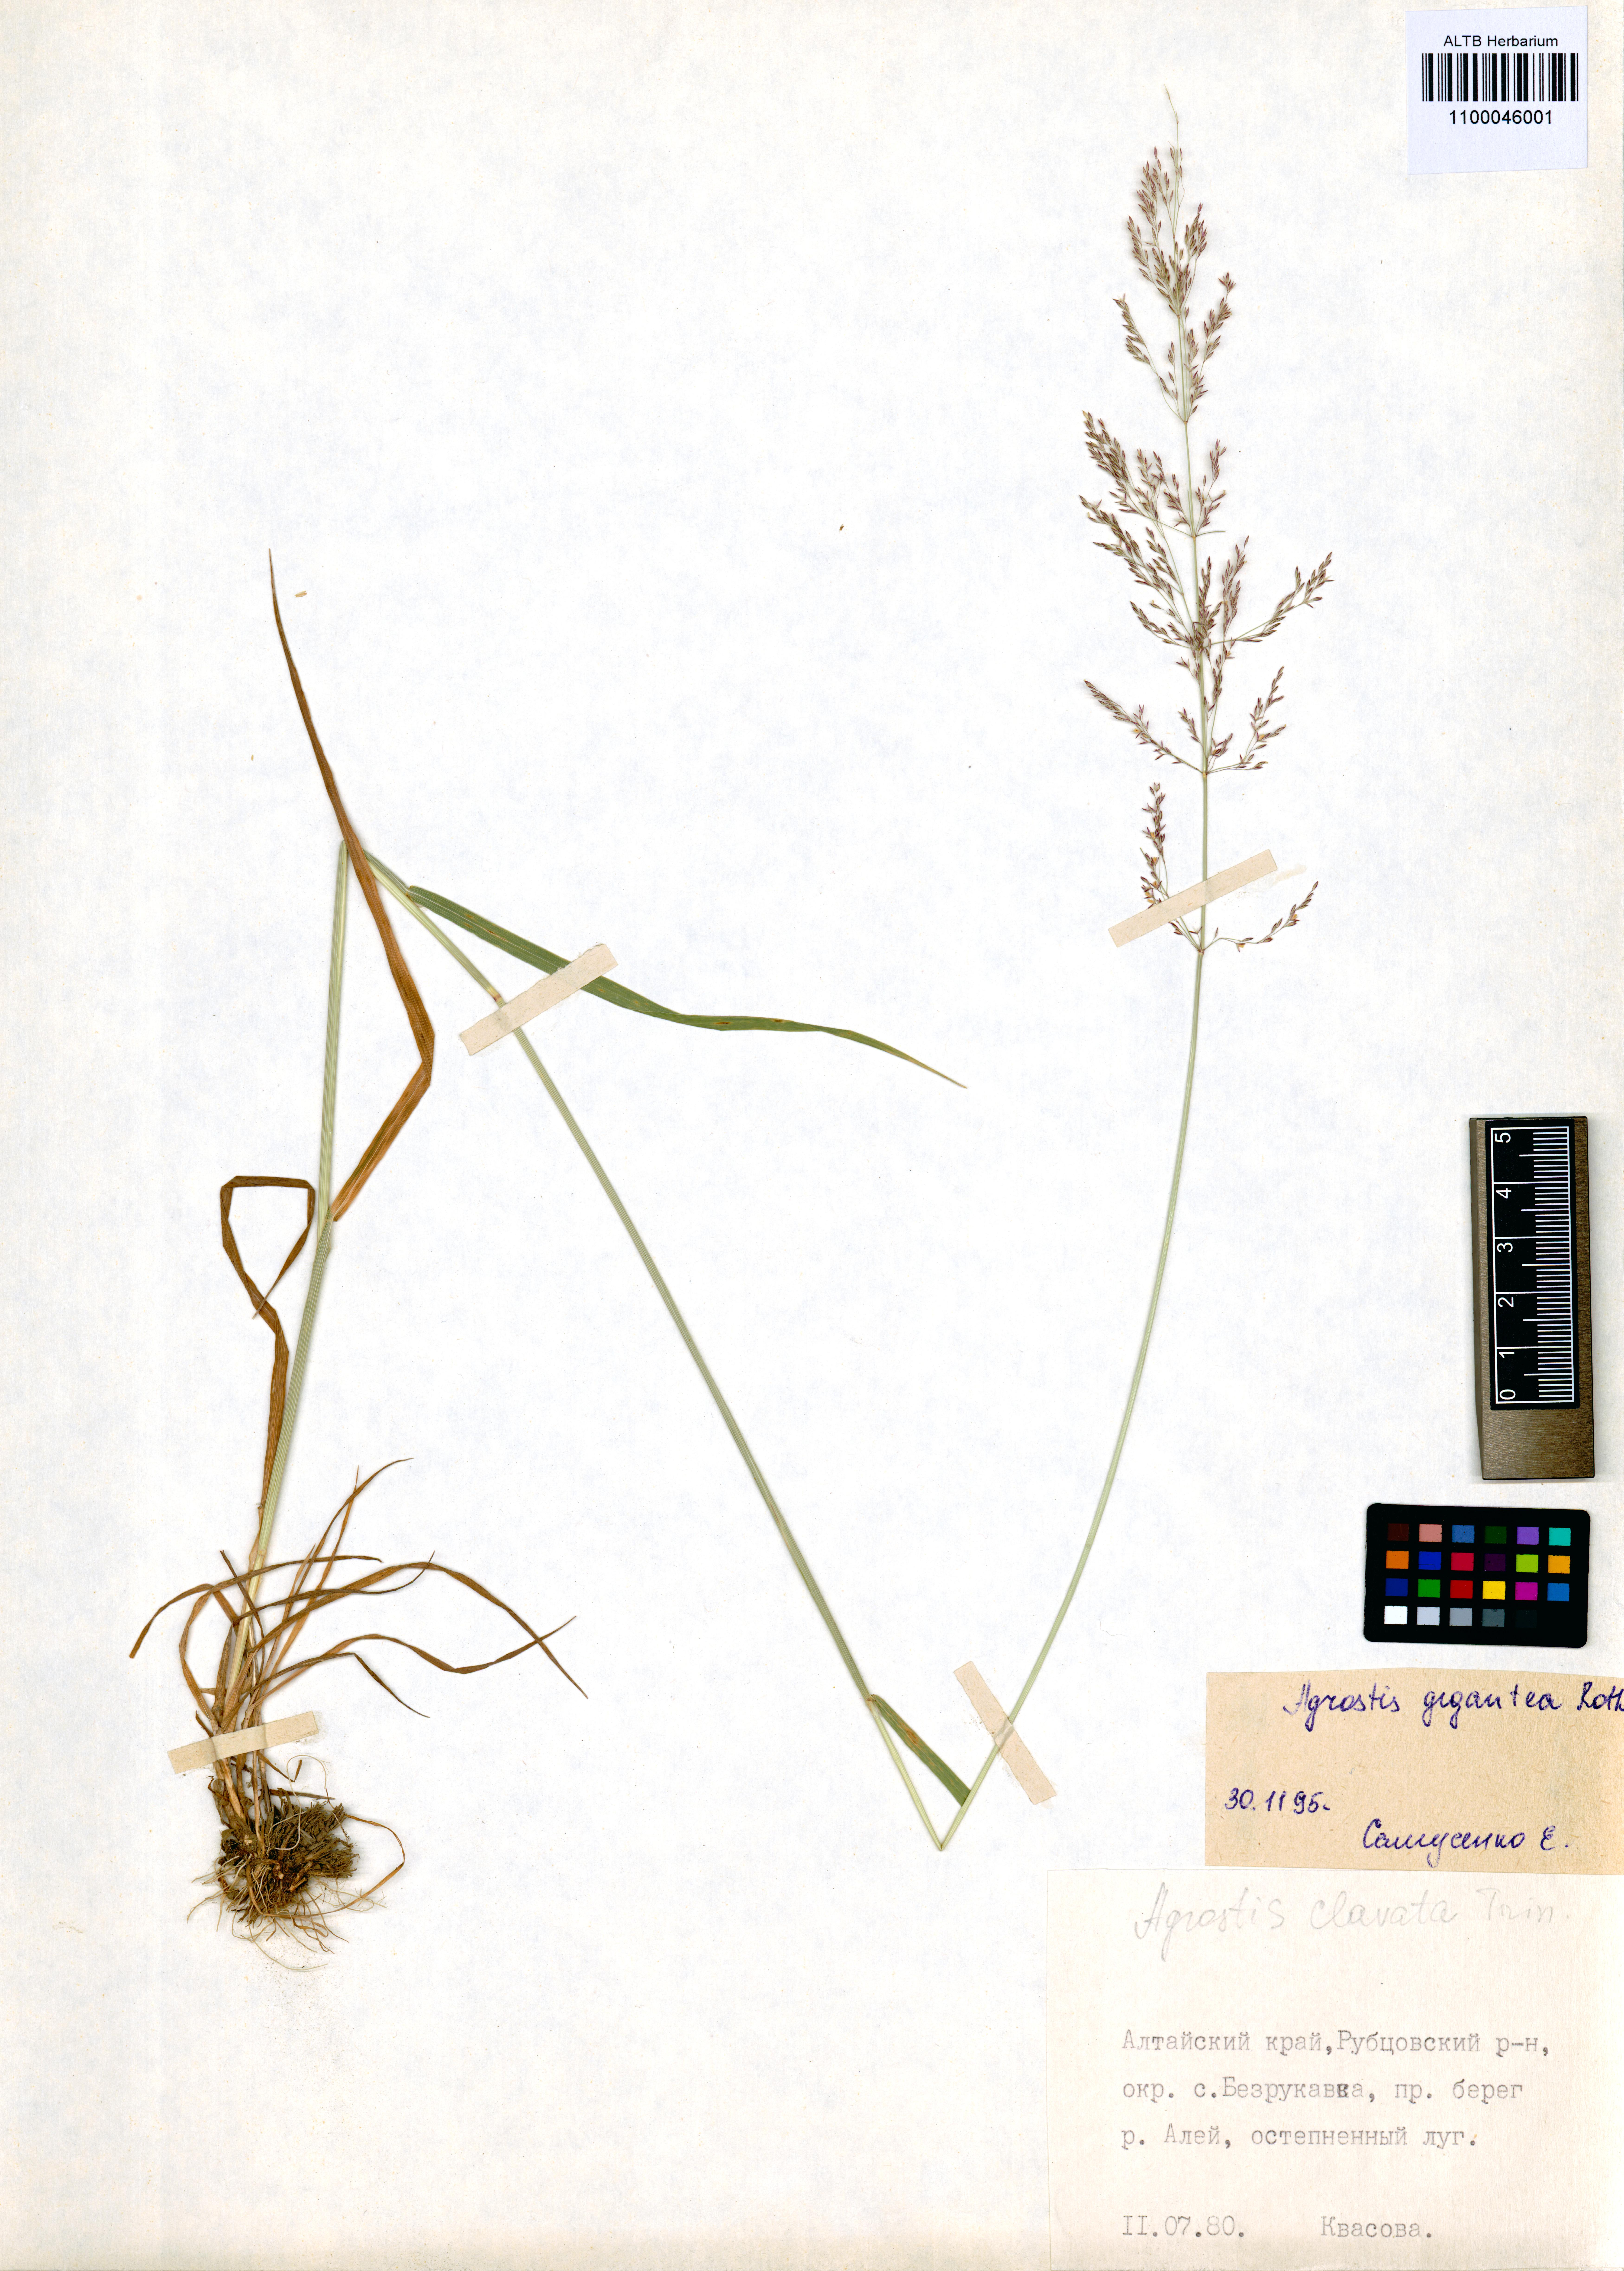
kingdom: Plantae
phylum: Tracheophyta
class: Liliopsida
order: Poales
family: Poaceae
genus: Agrostis
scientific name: Agrostis gigantea
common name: Black bent
